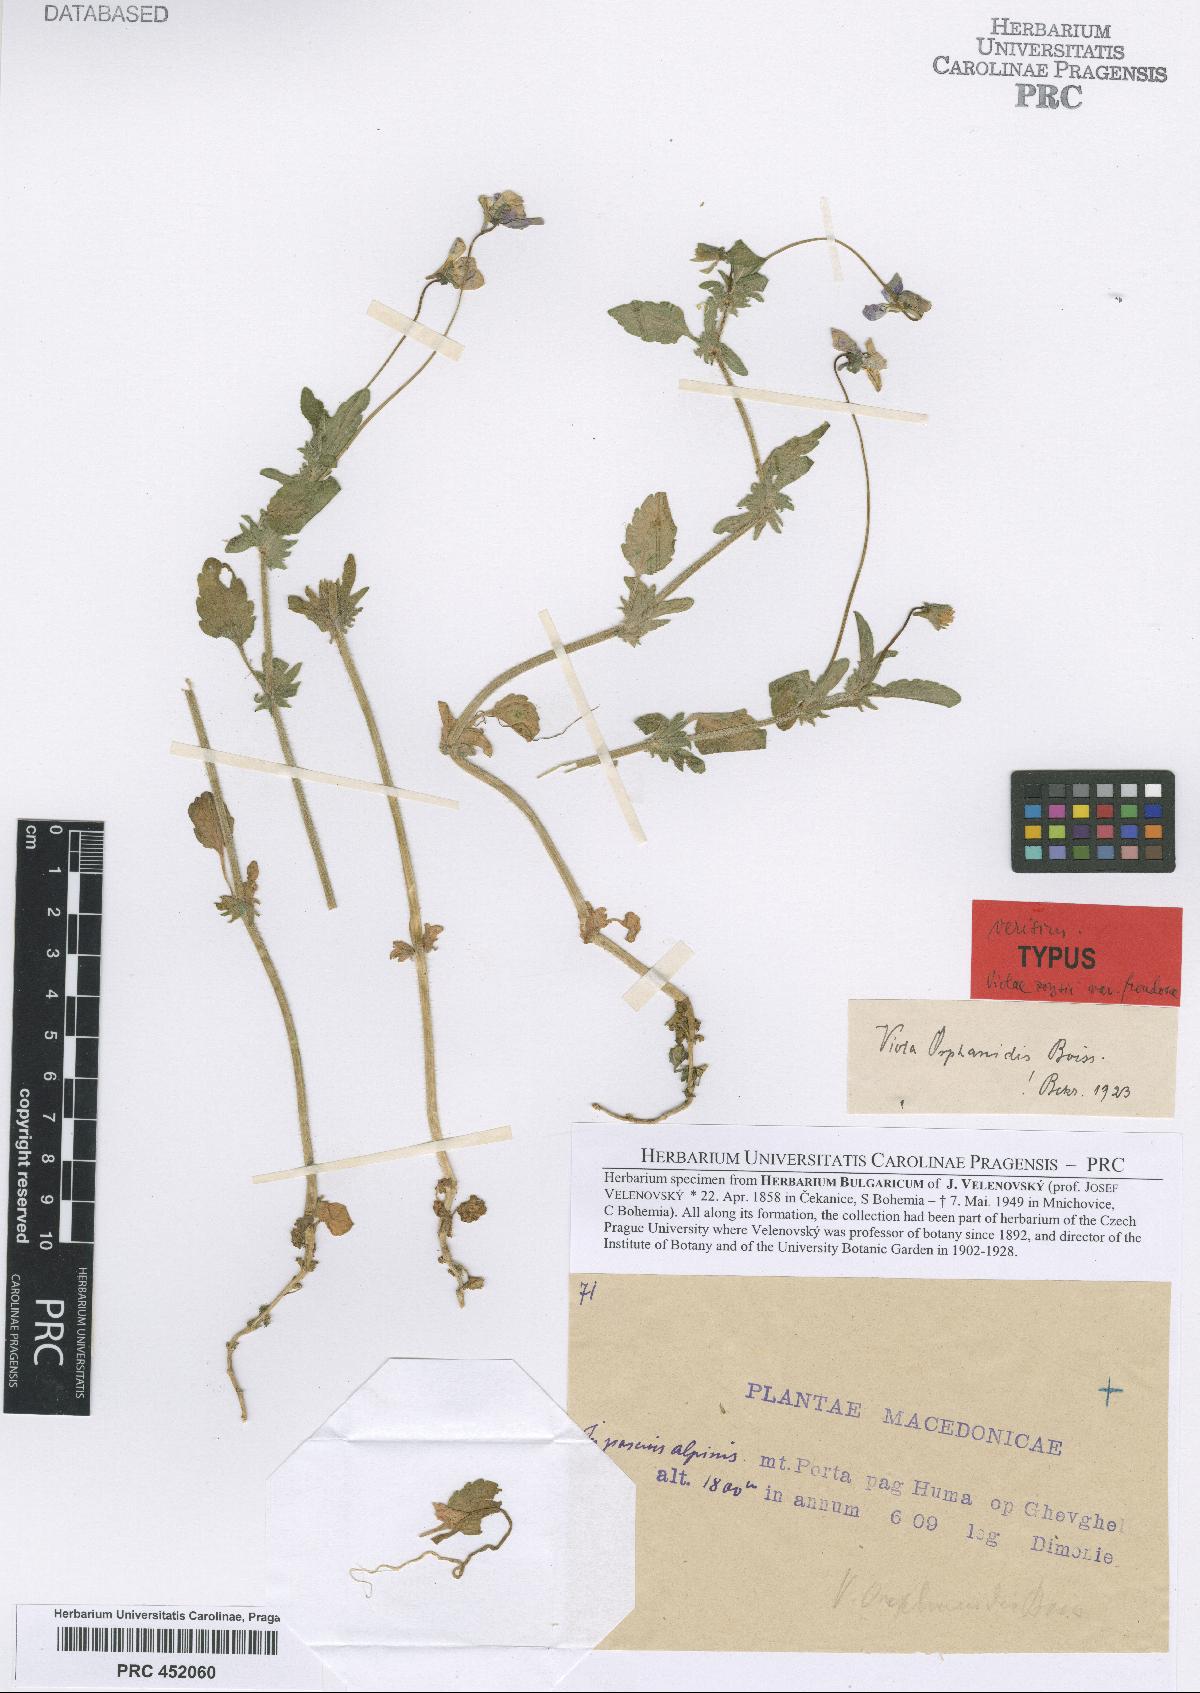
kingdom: Plantae
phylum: Tracheophyta
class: Magnoliopsida
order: Malpighiales
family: Violaceae
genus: Viola
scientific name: Viola orphanidis
